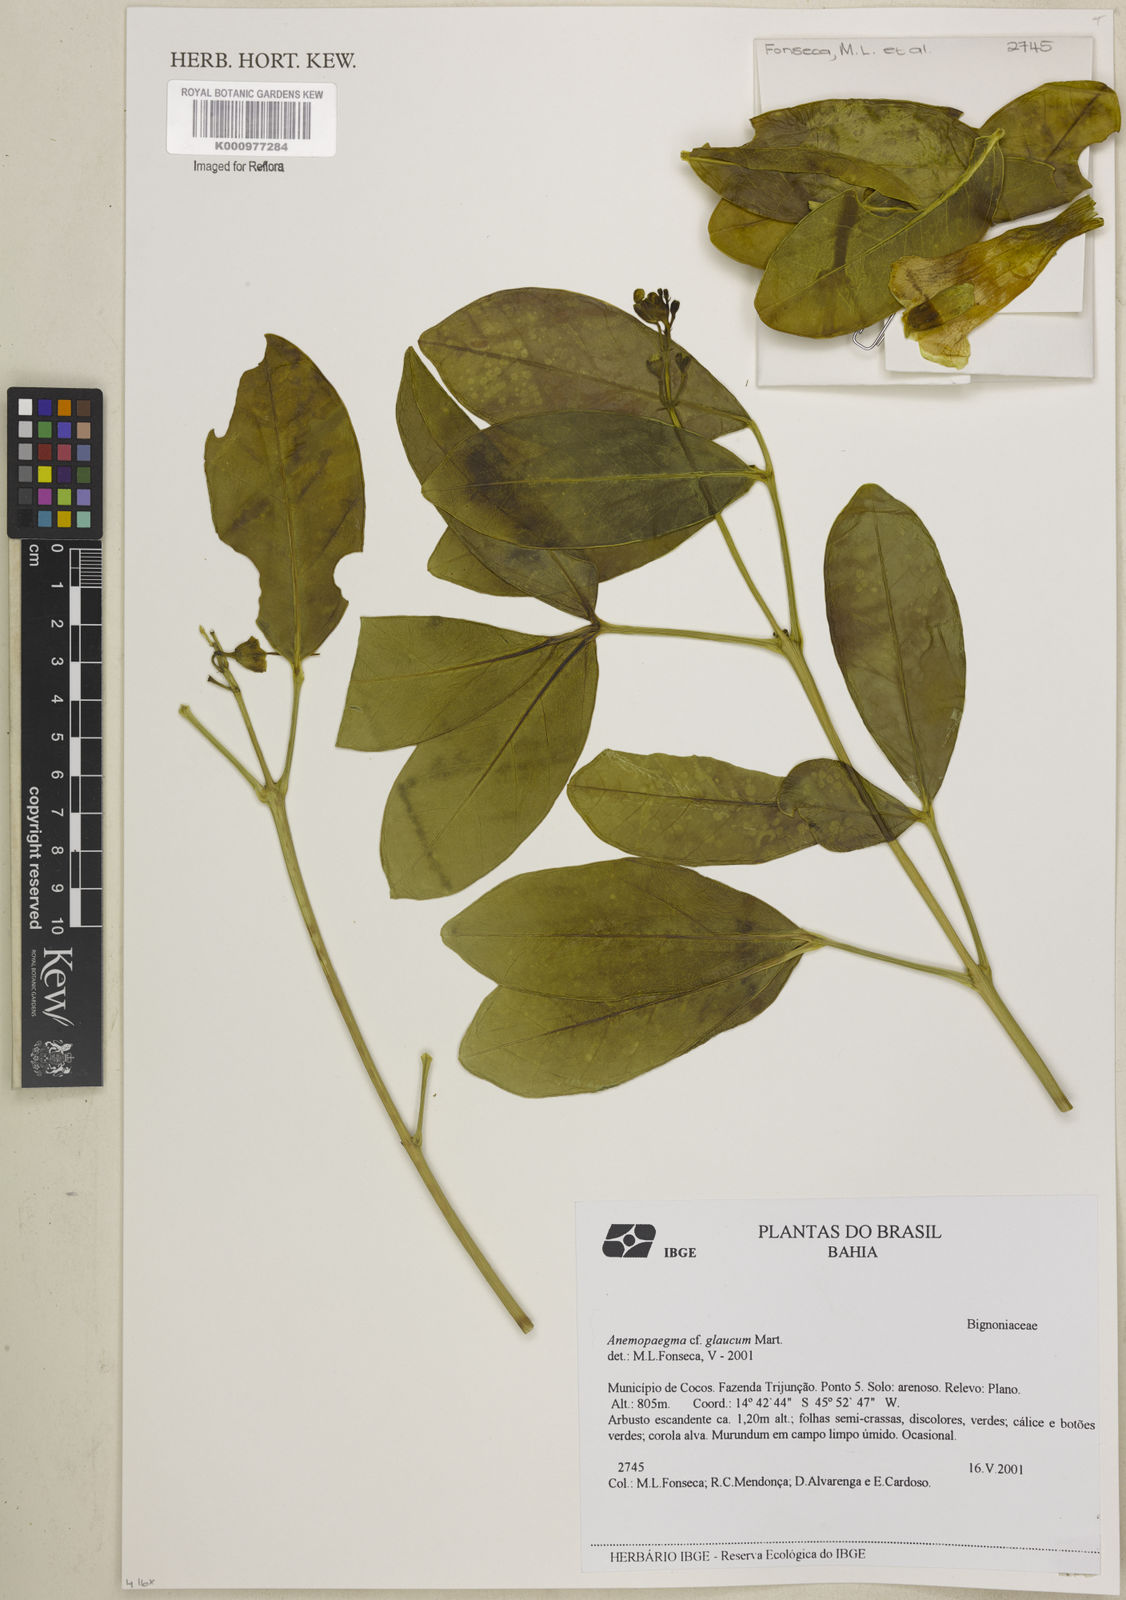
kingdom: Plantae
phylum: Tracheophyta
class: Magnoliopsida
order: Lamiales
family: Bignoniaceae
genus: Anemopaegma
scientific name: Anemopaegma glaucum
